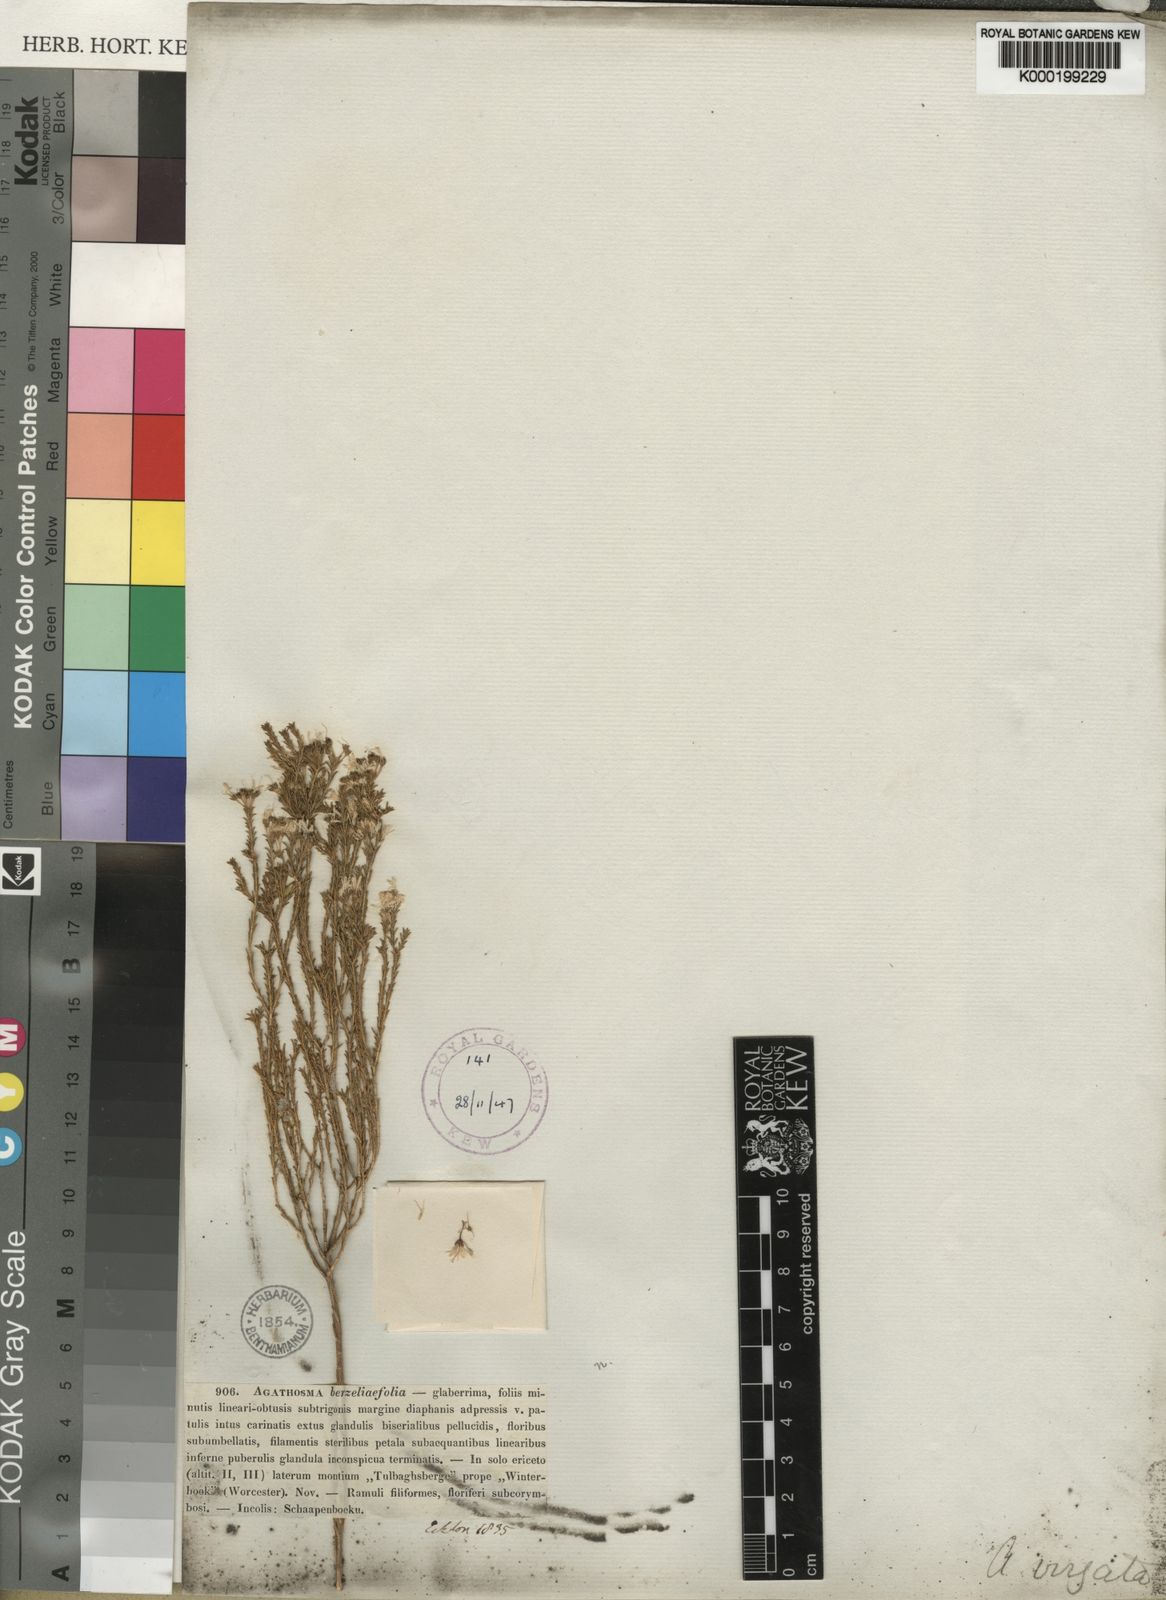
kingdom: Plantae
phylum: Tracheophyta
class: Magnoliopsida
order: Sapindales
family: Rutaceae
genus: Agathosma
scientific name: Agathosma virgata
